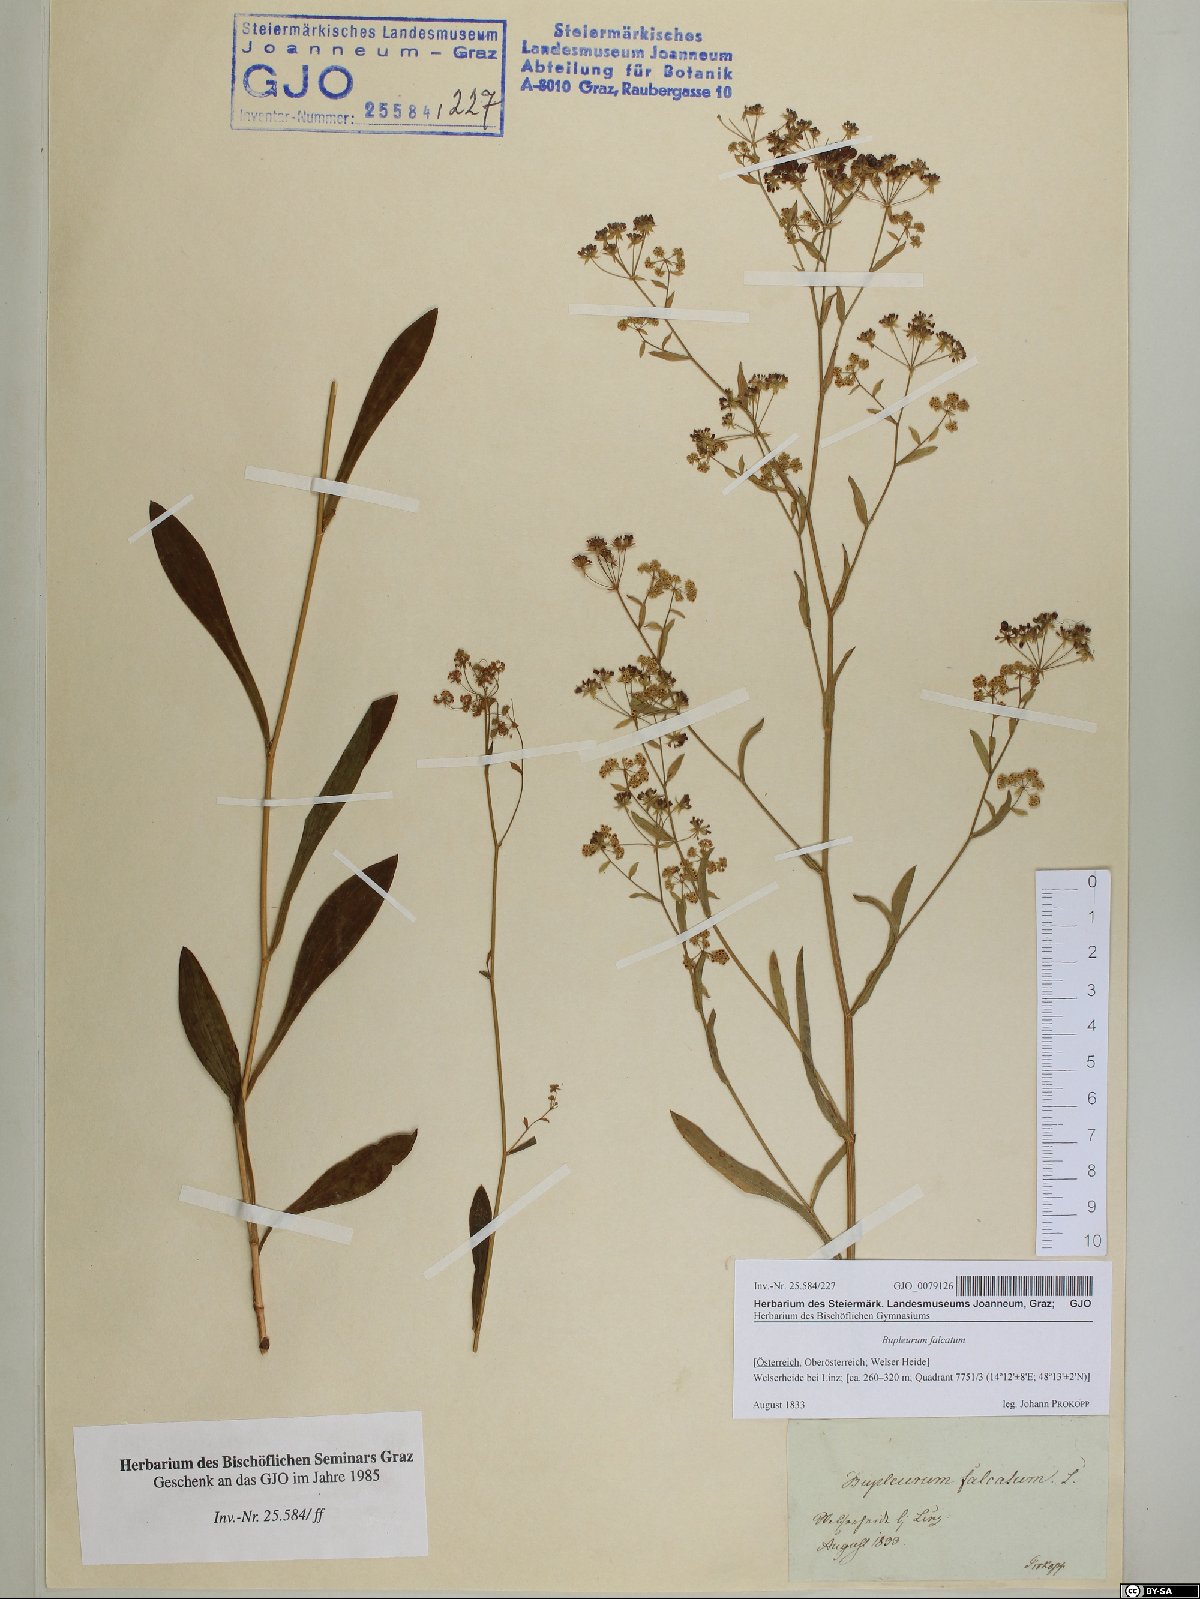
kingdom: Plantae
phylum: Tracheophyta
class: Magnoliopsida
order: Apiales
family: Apiaceae
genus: Bupleurum
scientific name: Bupleurum falcatum
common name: Sickle-leaved hare's-ear
